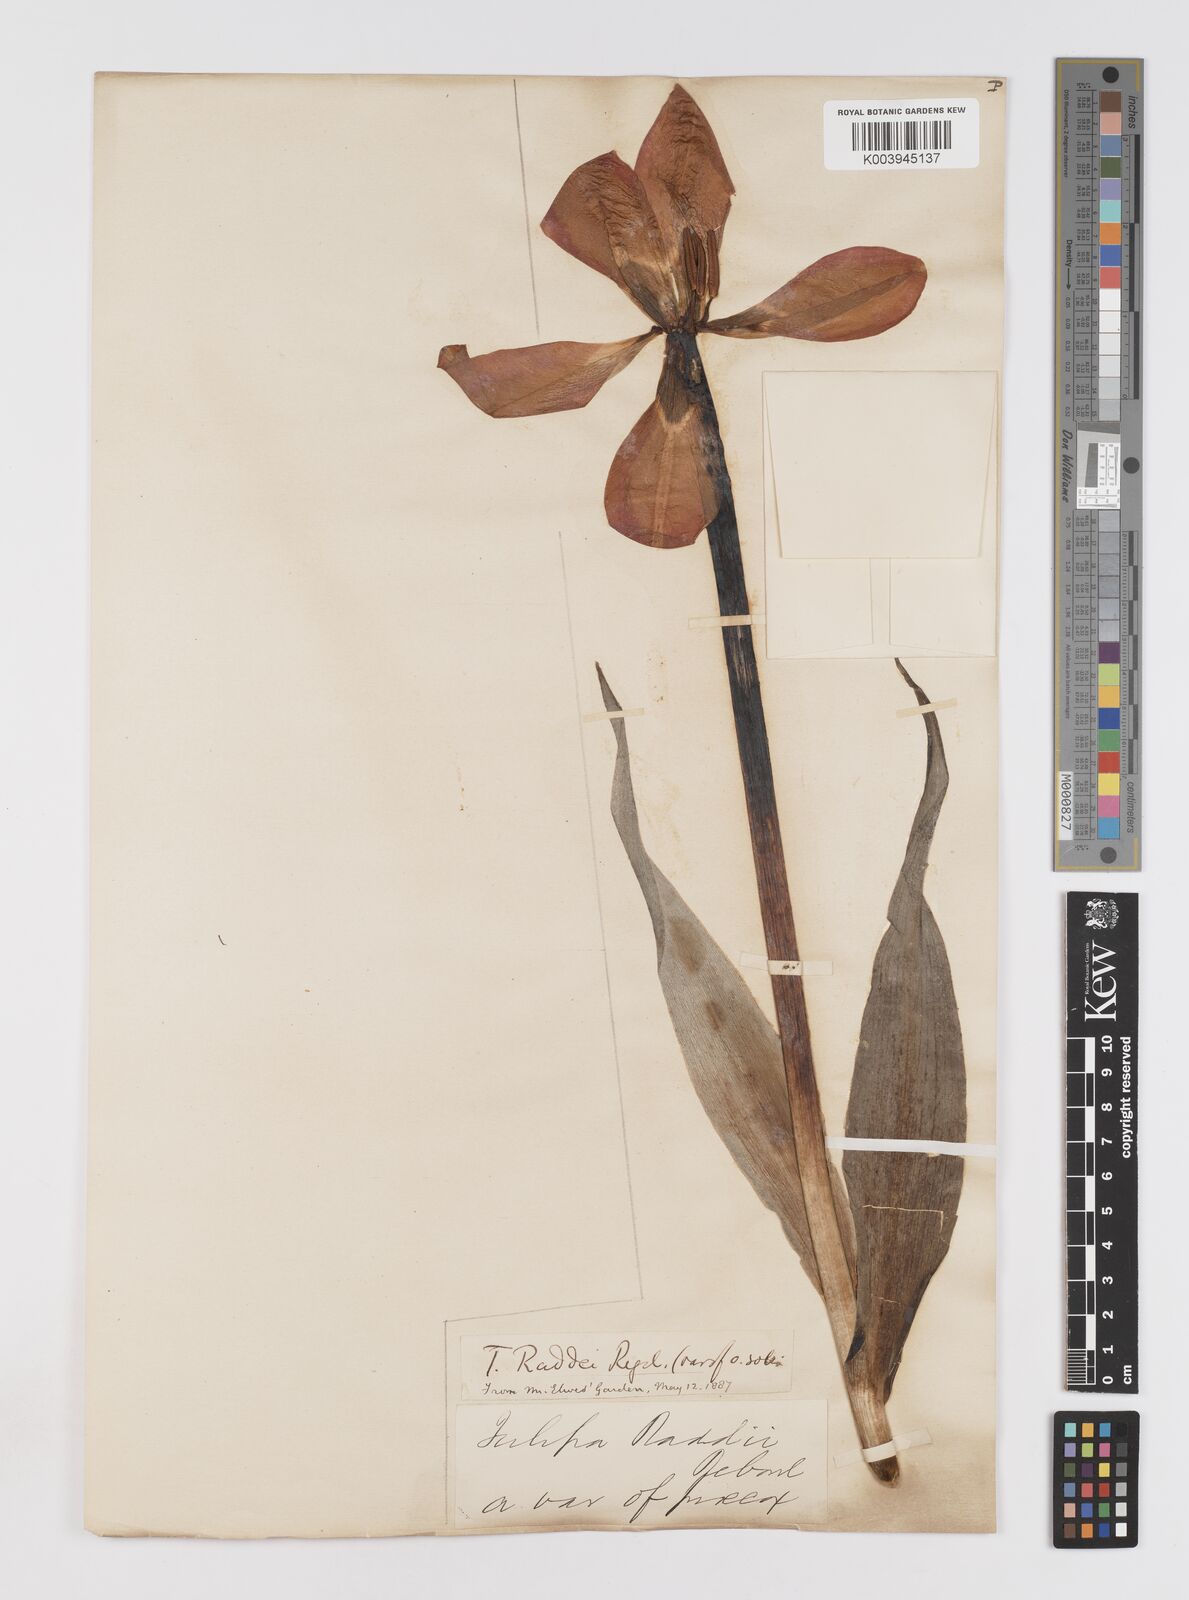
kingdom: Plantae
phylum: Tracheophyta
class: Liliopsida
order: Liliales
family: Liliaceae
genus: Tulipa
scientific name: Tulipa
